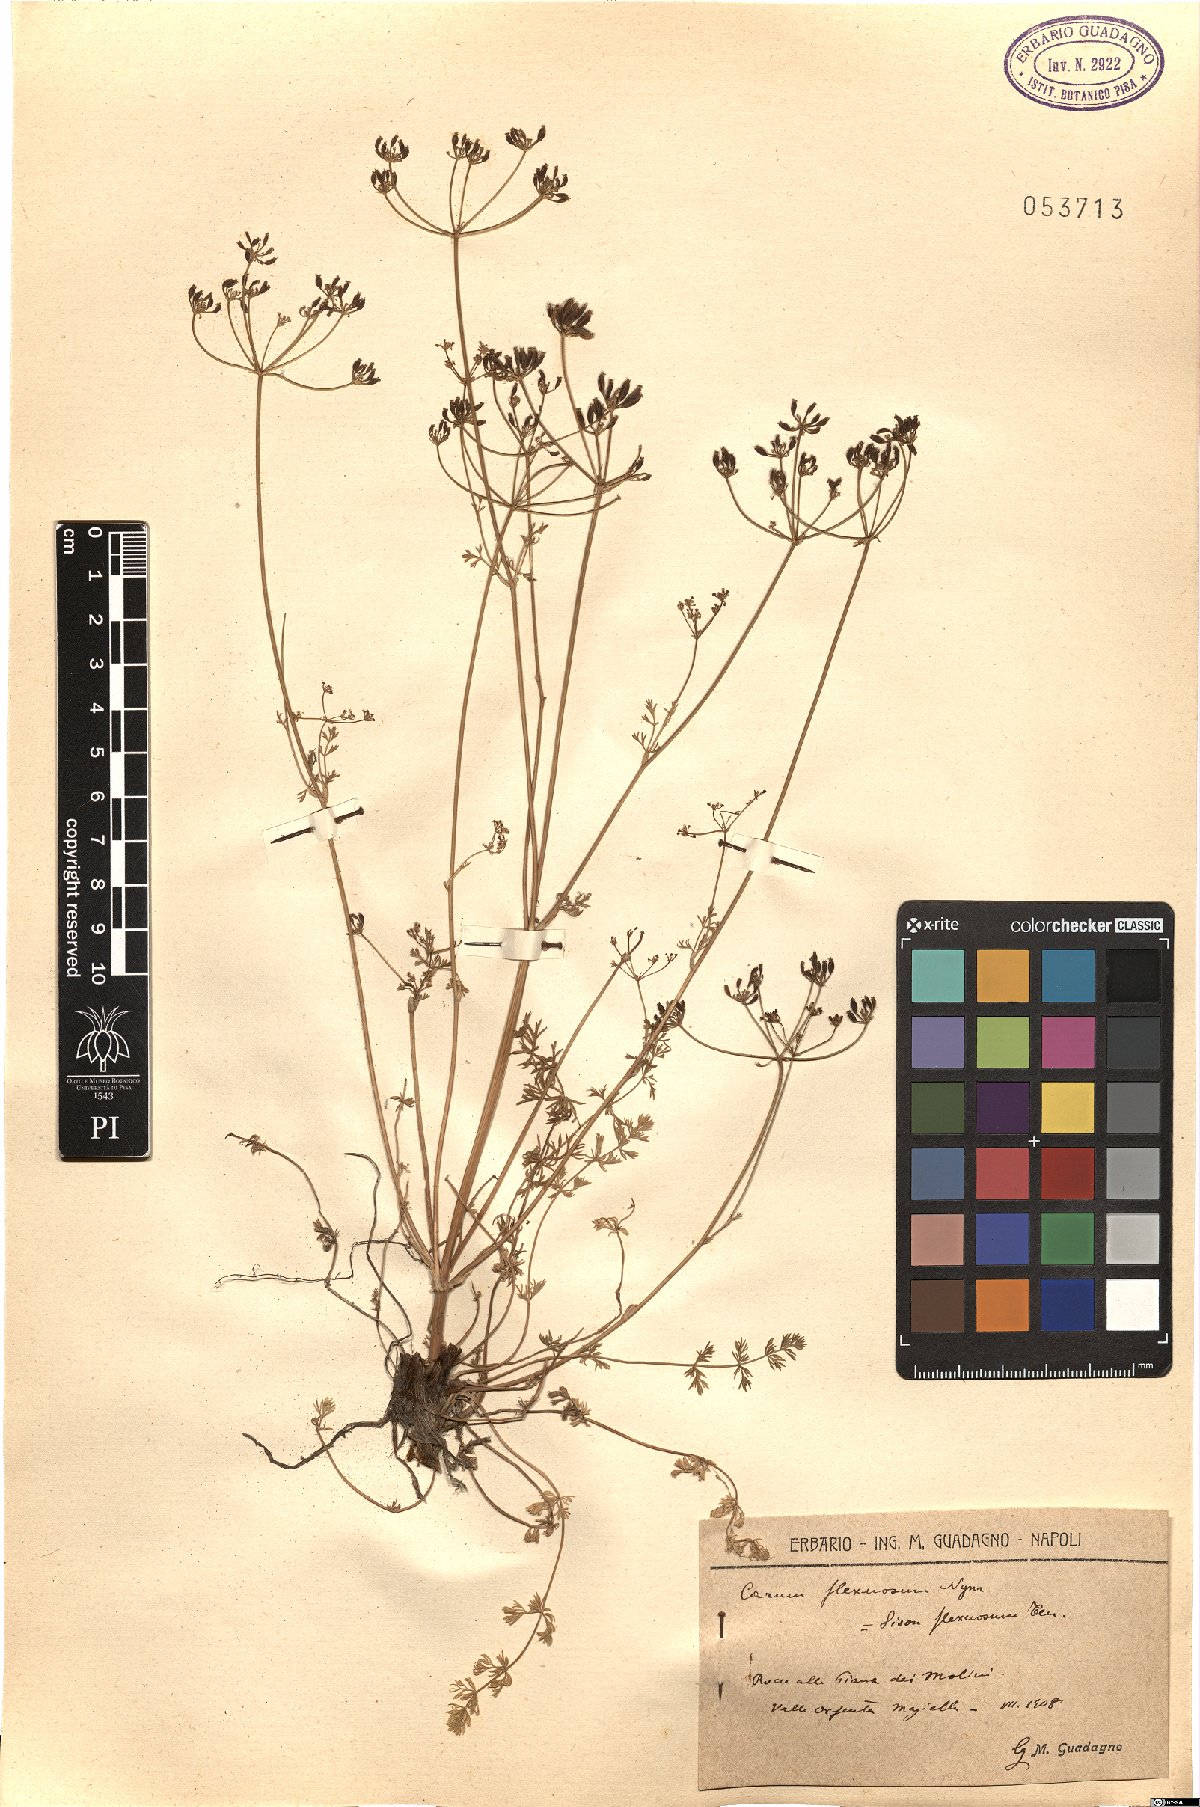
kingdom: Plantae
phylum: Tracheophyta
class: Magnoliopsida
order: Apiales
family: Apiaceae
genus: Selinum
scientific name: Selinum carvifolia
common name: Cambridge milk-parsley
